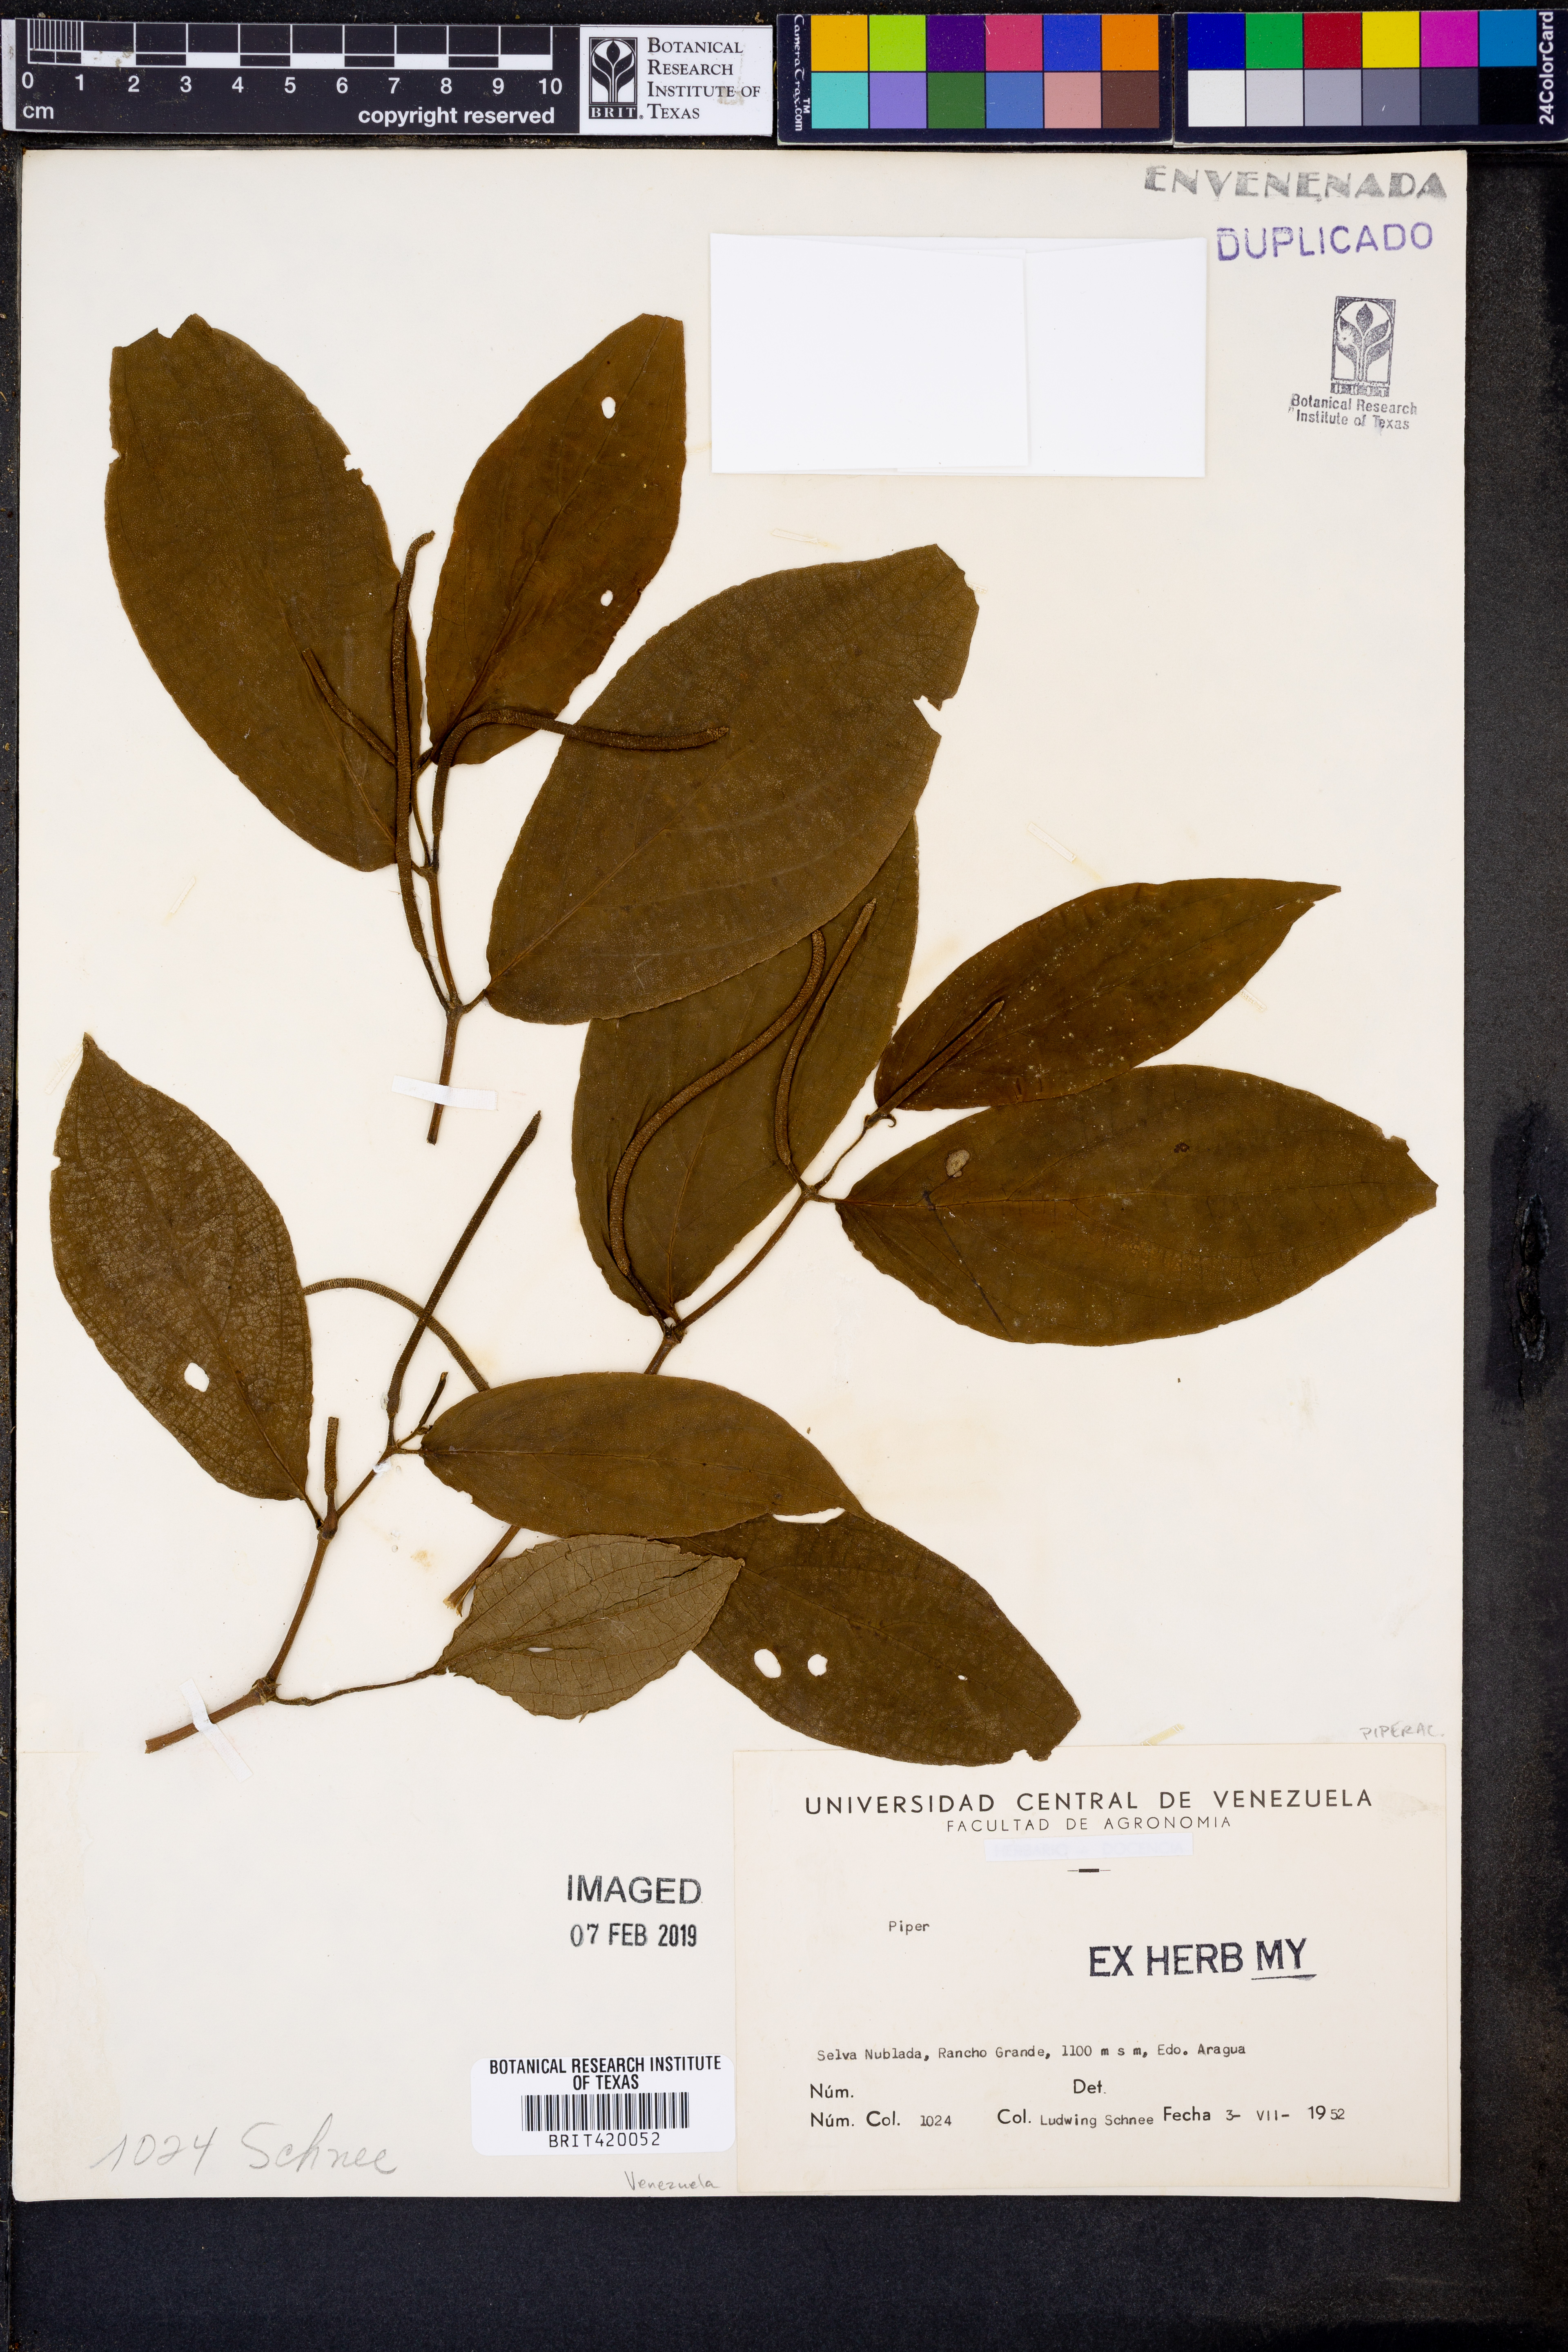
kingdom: Plantae
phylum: Tracheophyta
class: Magnoliopsida
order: Piperales
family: Piperaceae
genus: Piper
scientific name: Piper
